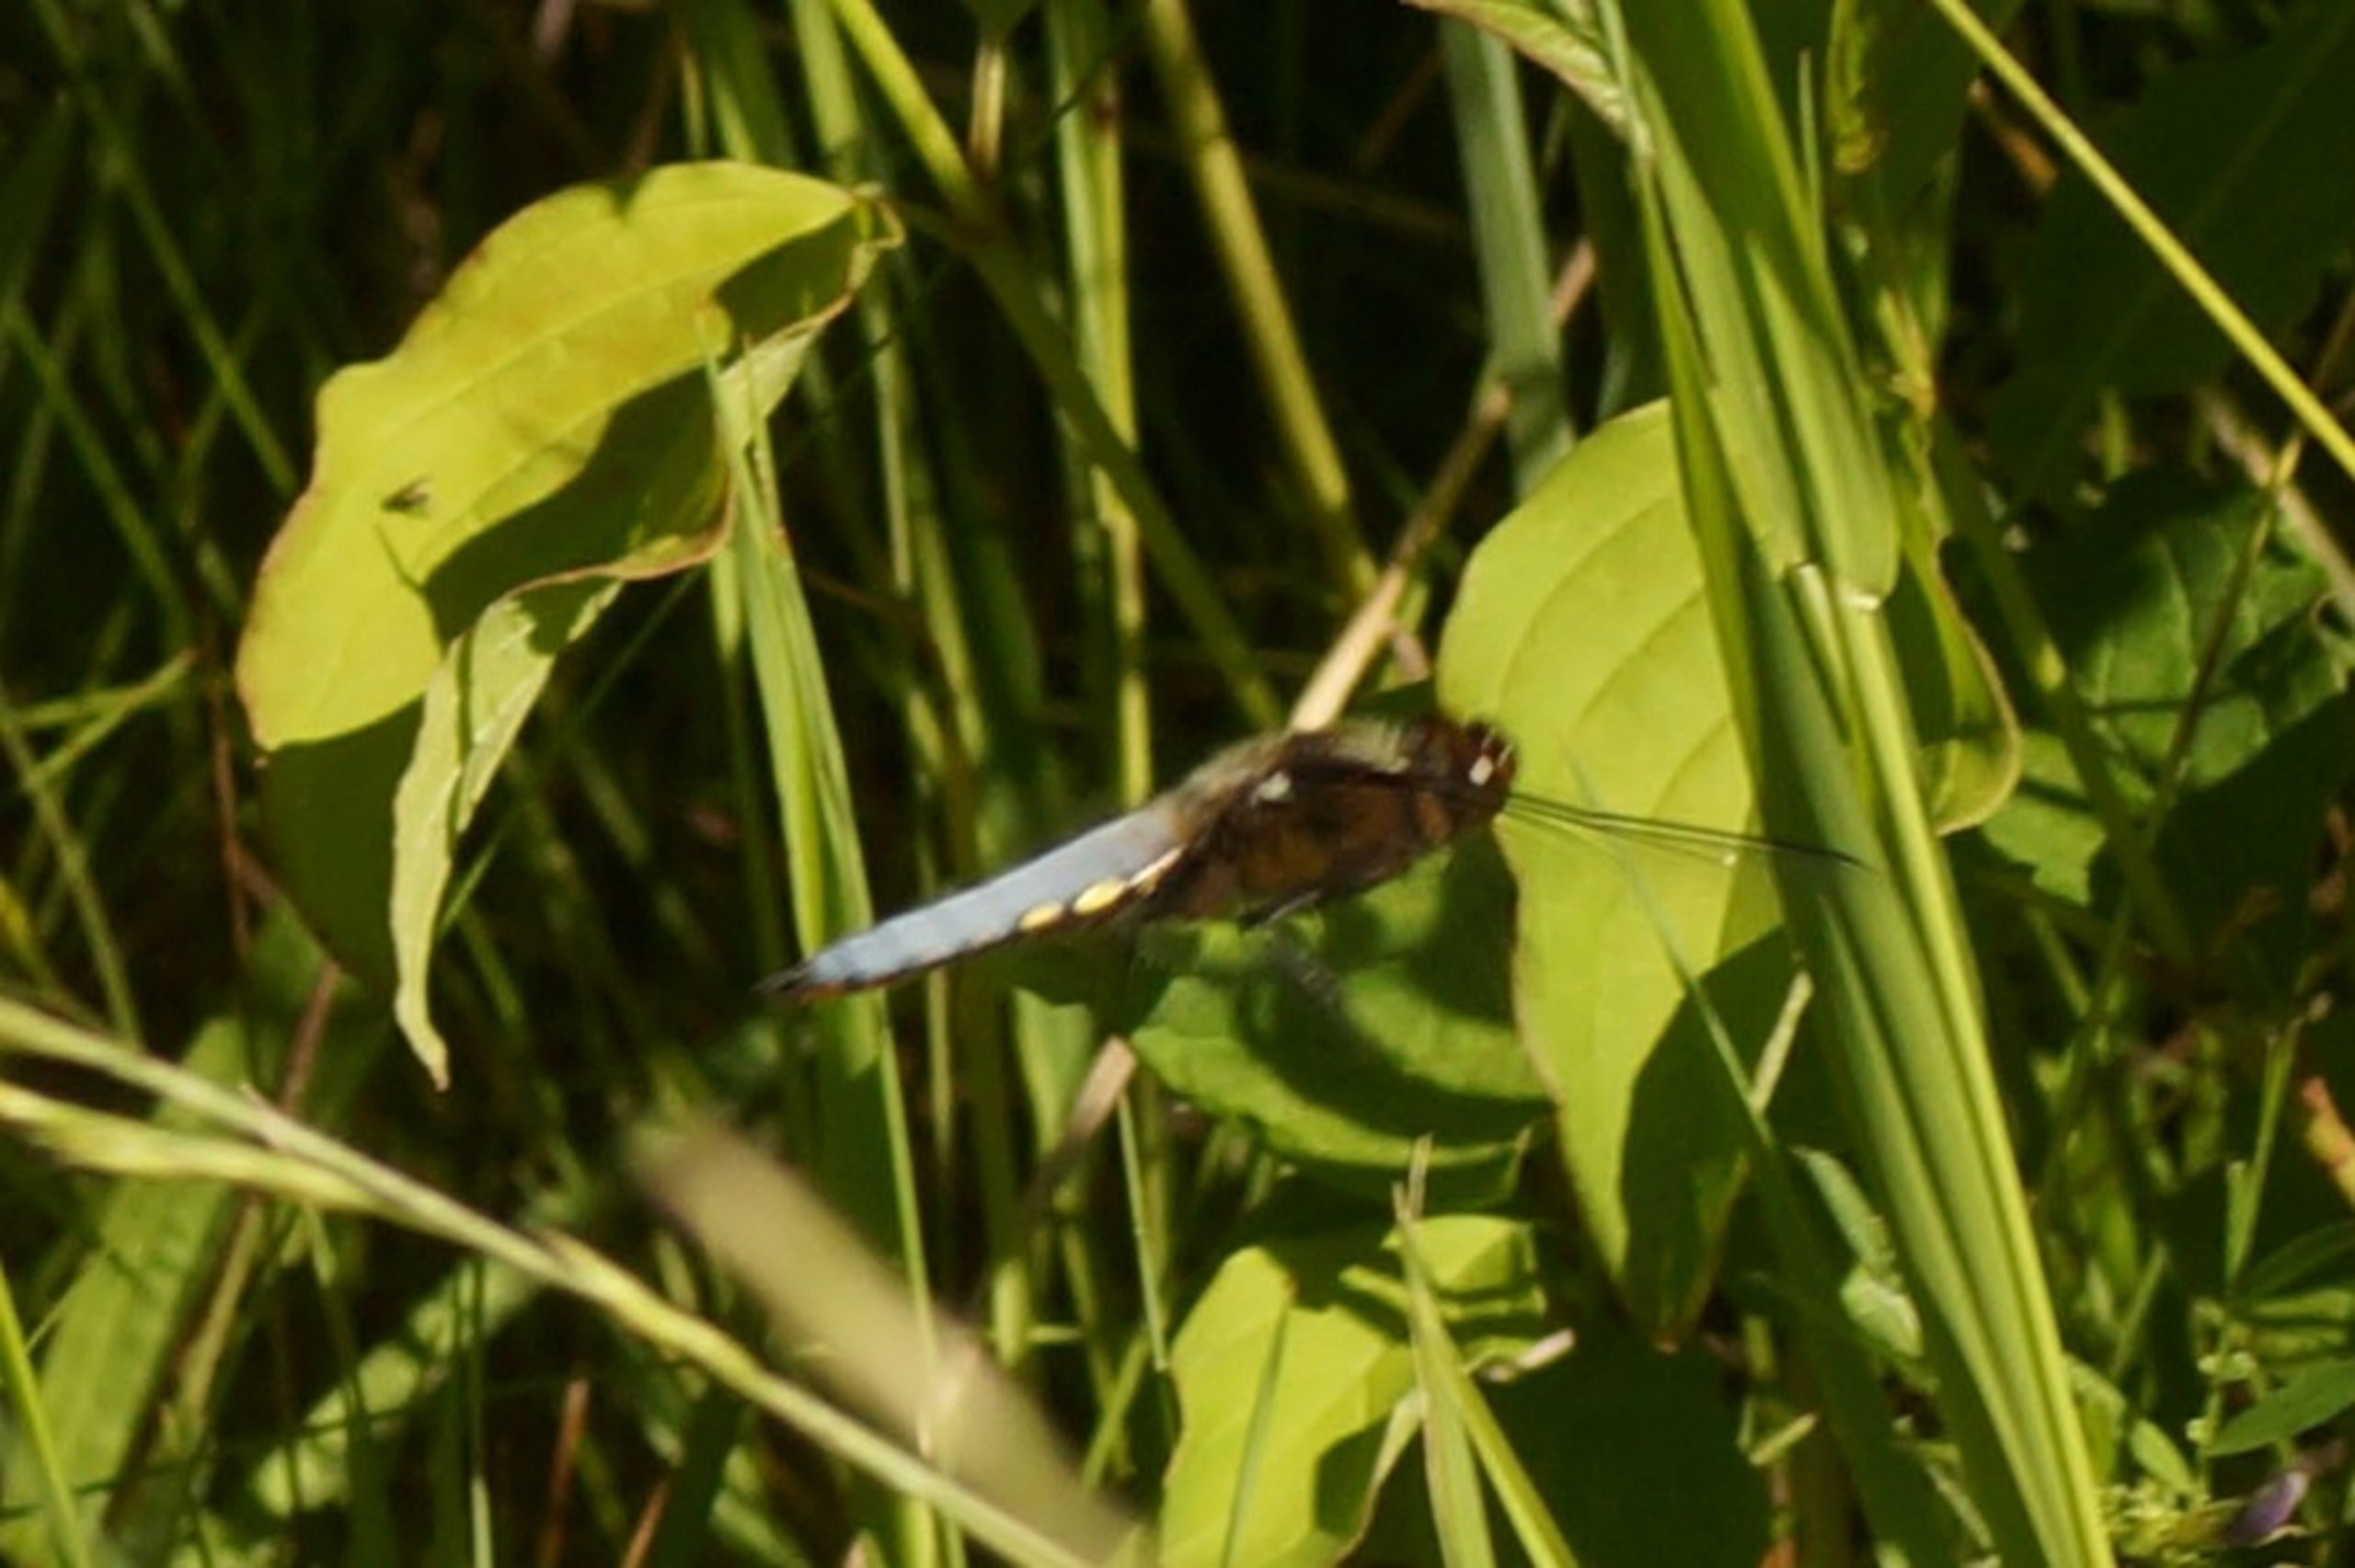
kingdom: Animalia
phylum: Arthropoda
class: Insecta
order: Odonata
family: Libellulidae
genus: Libellula
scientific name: Libellula depressa
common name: Blå libel
